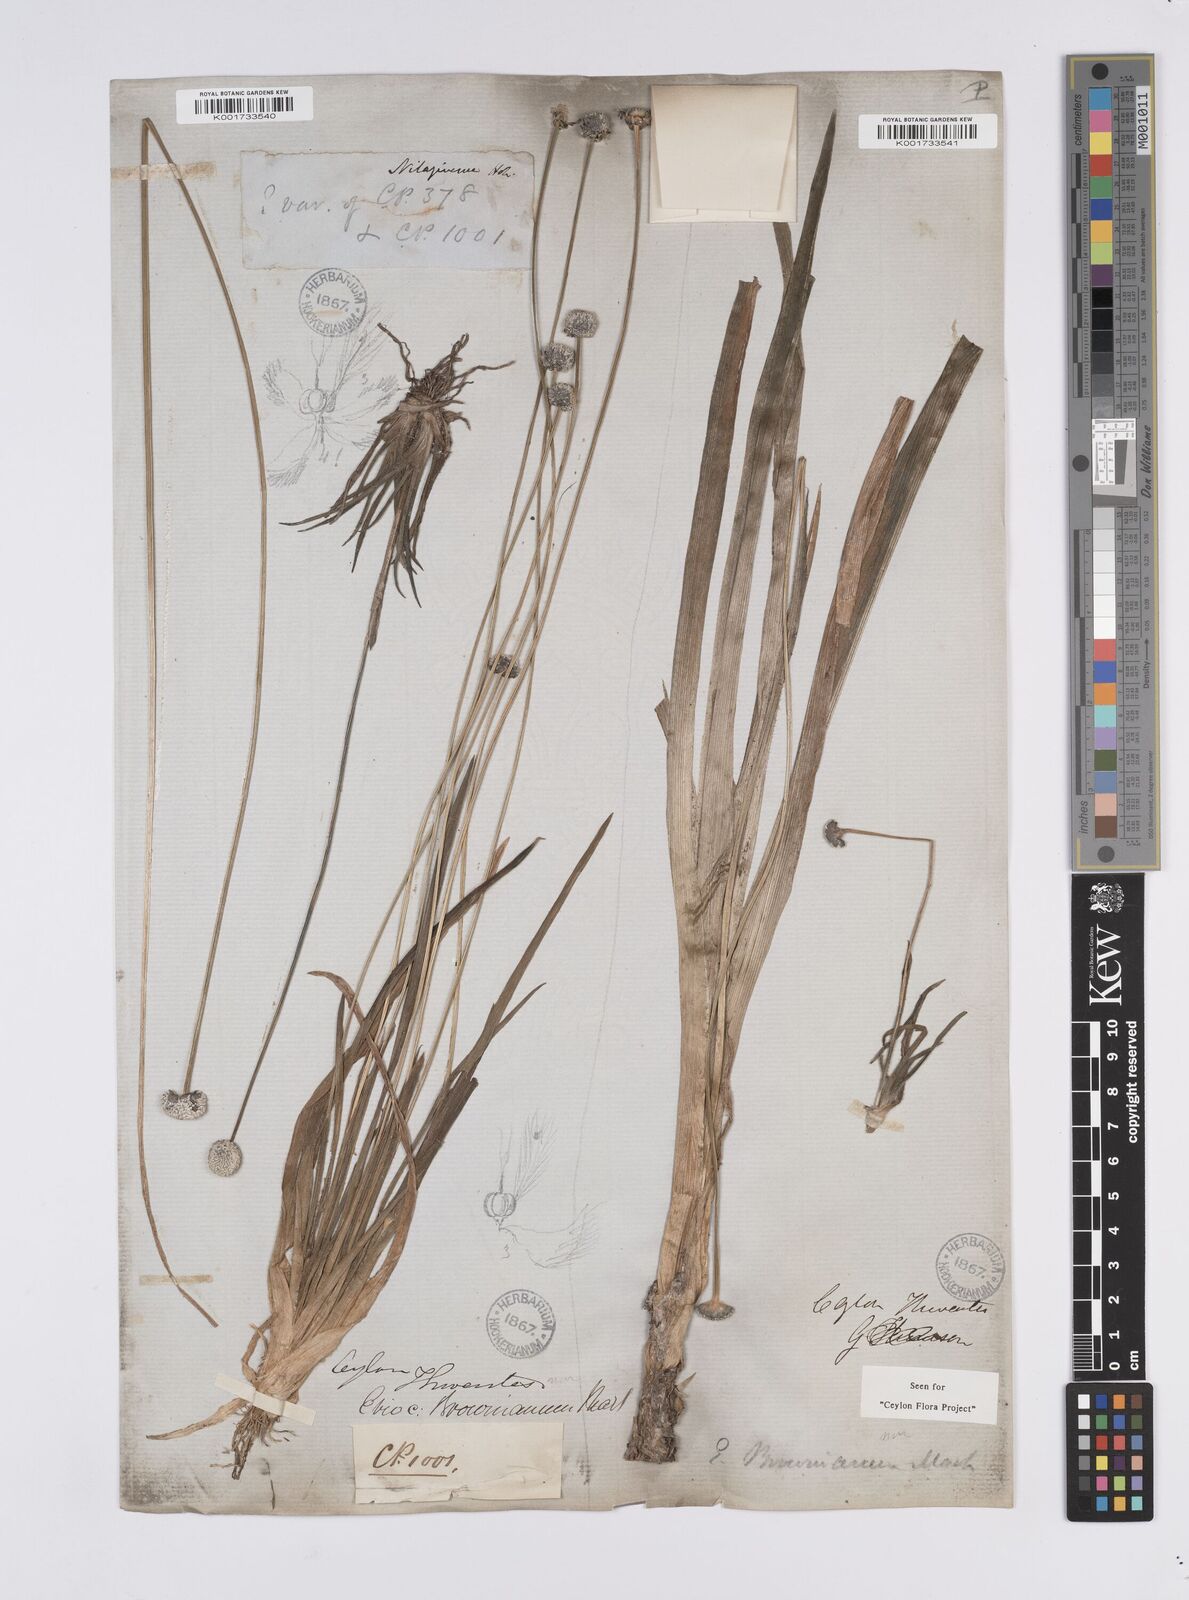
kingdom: Plantae
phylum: Tracheophyta
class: Liliopsida
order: Poales
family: Eriocaulaceae
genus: Eriocaulon
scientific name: Eriocaulon brownianum
